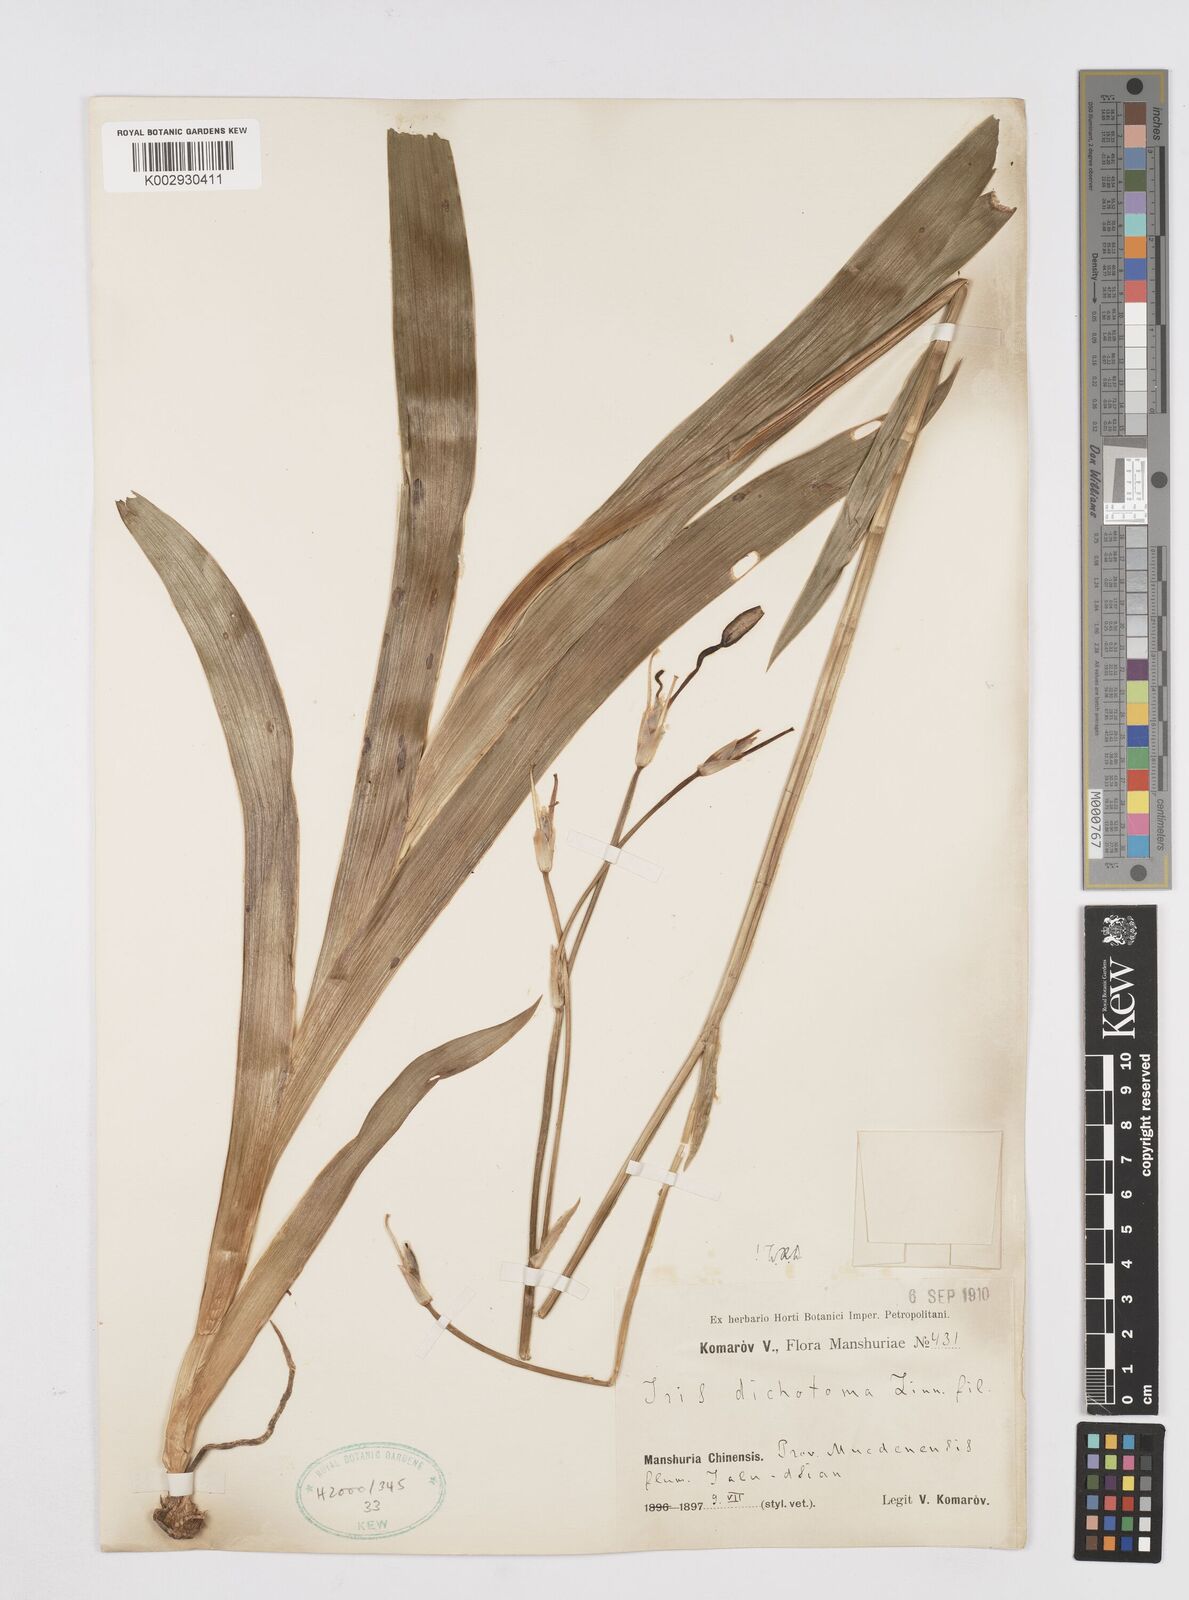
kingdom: Plantae
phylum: Tracheophyta
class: Liliopsida
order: Asparagales
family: Iridaceae
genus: Iris
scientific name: Iris dichotoma
